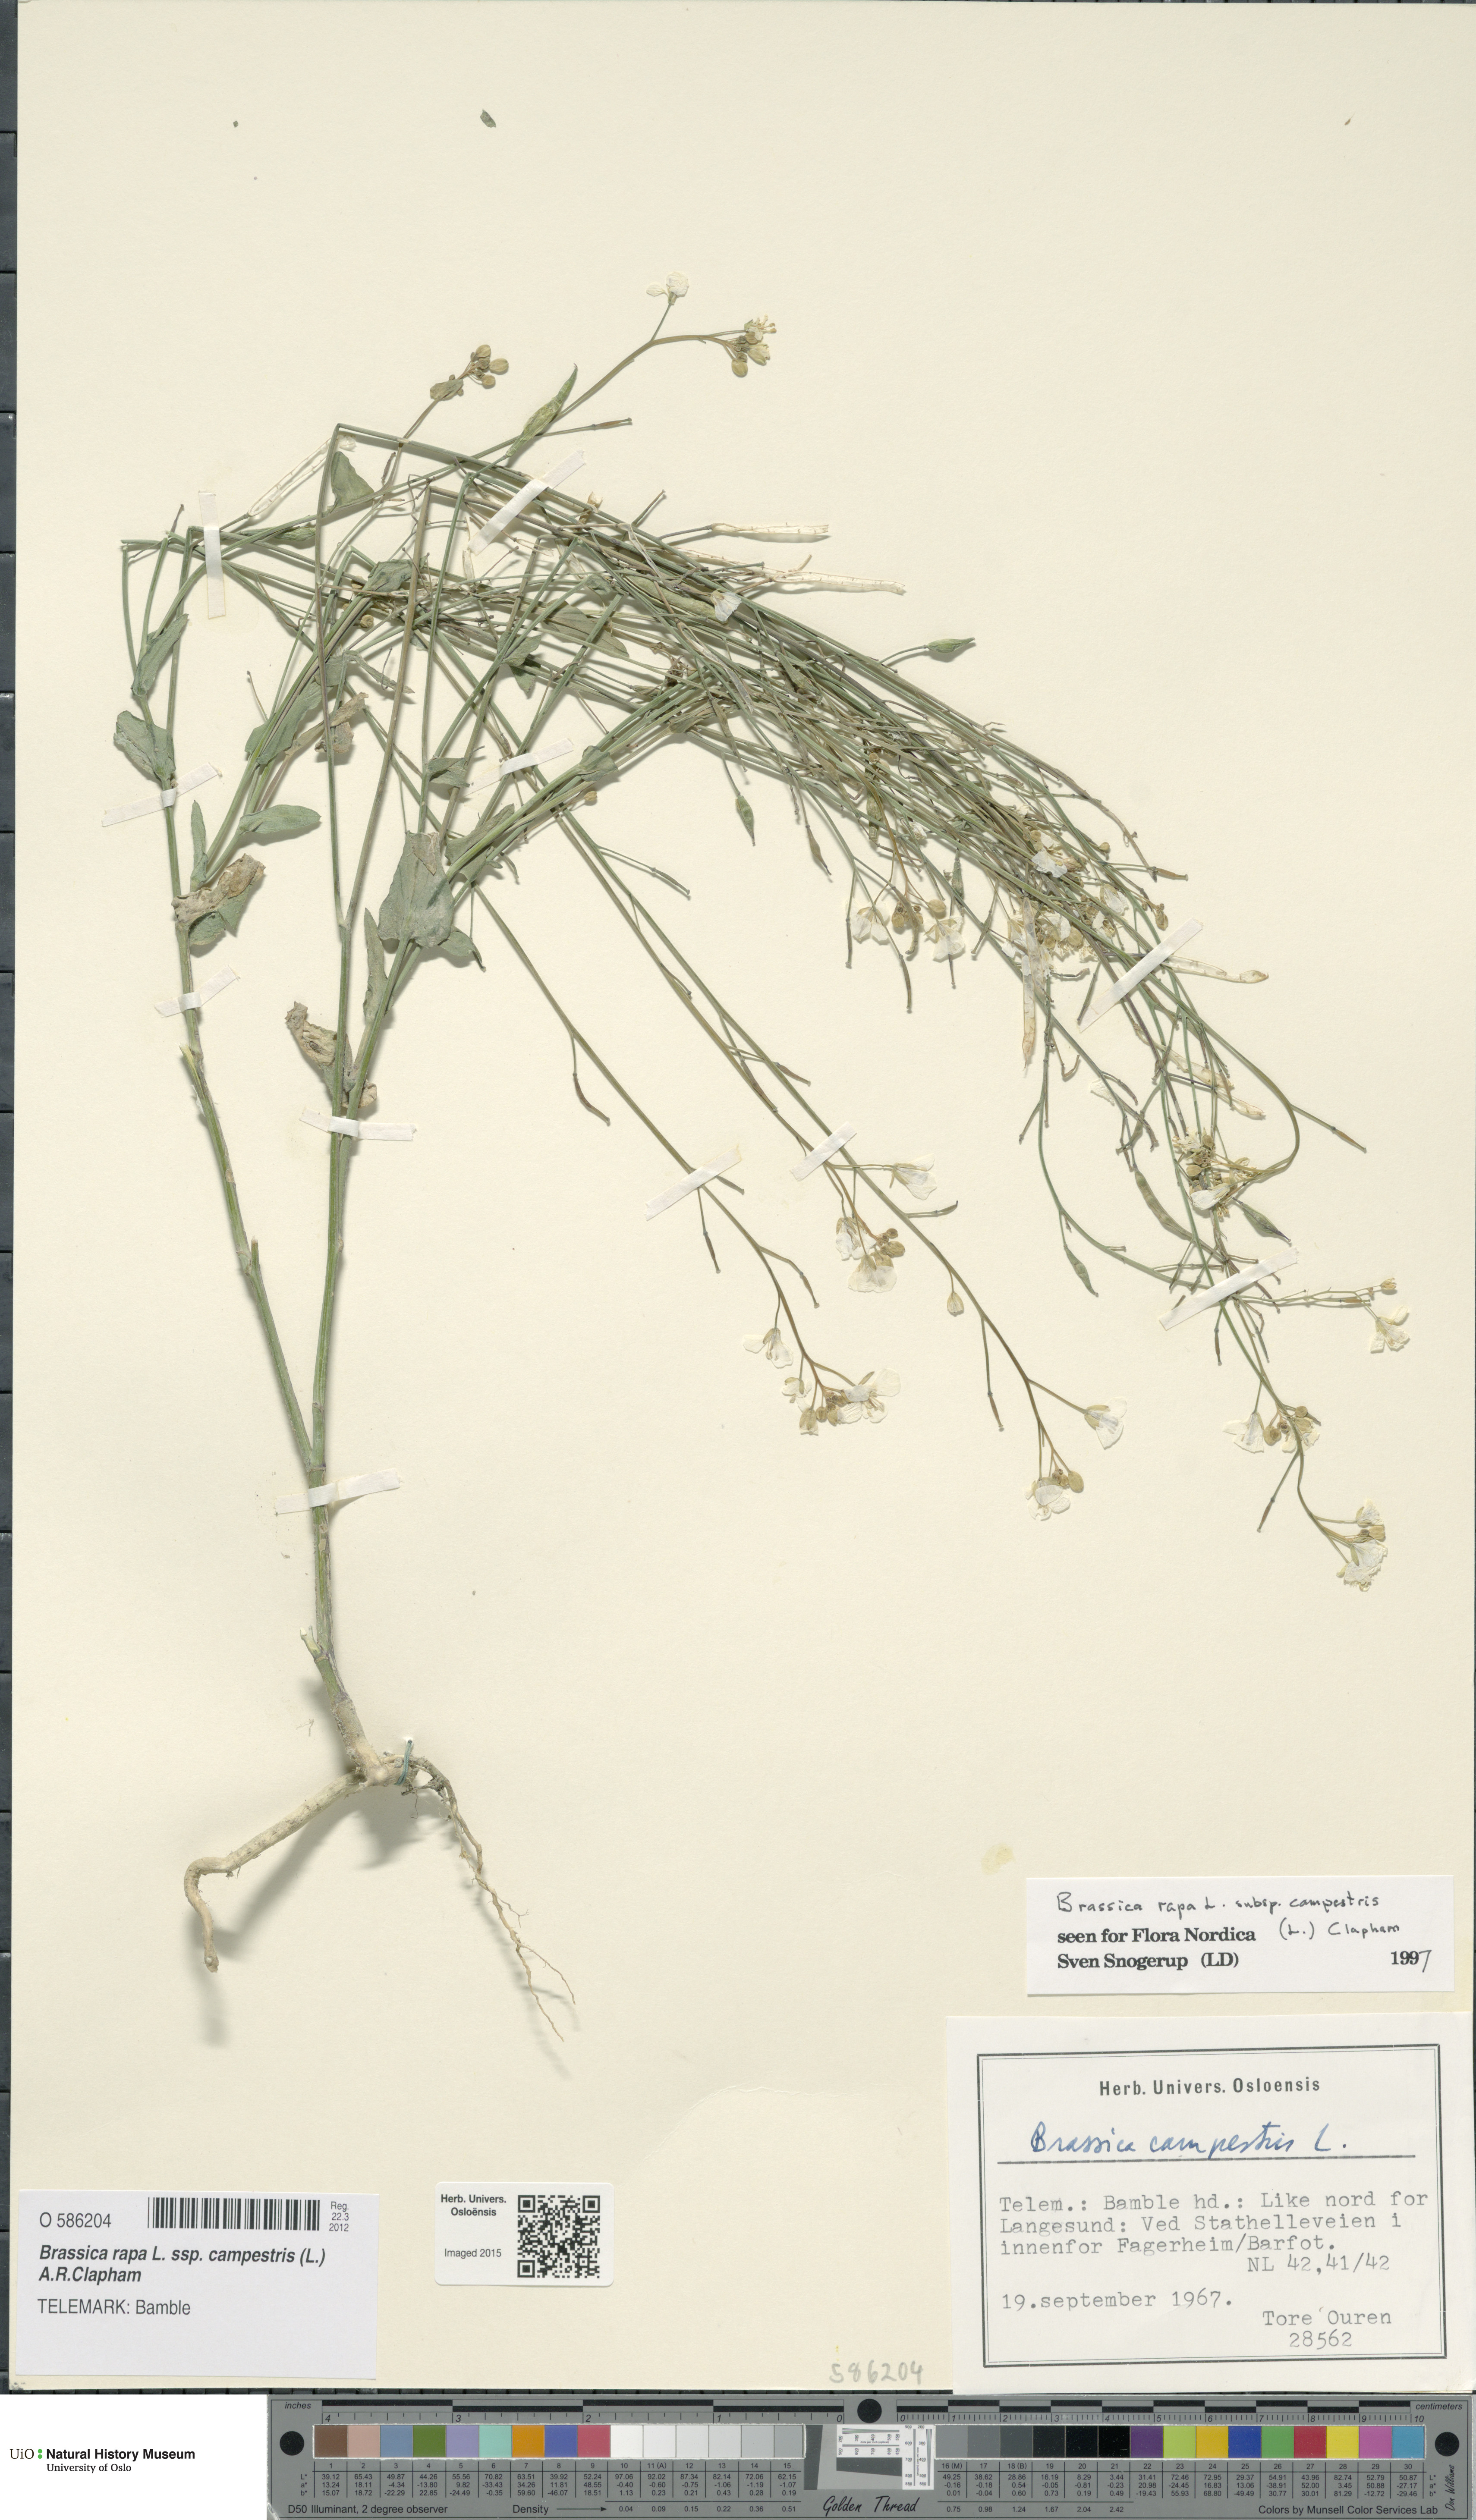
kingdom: Plantae
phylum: Tracheophyta
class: Magnoliopsida
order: Brassicales
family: Brassicaceae
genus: Brassica
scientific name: Brassica rapa
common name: Field mustard
